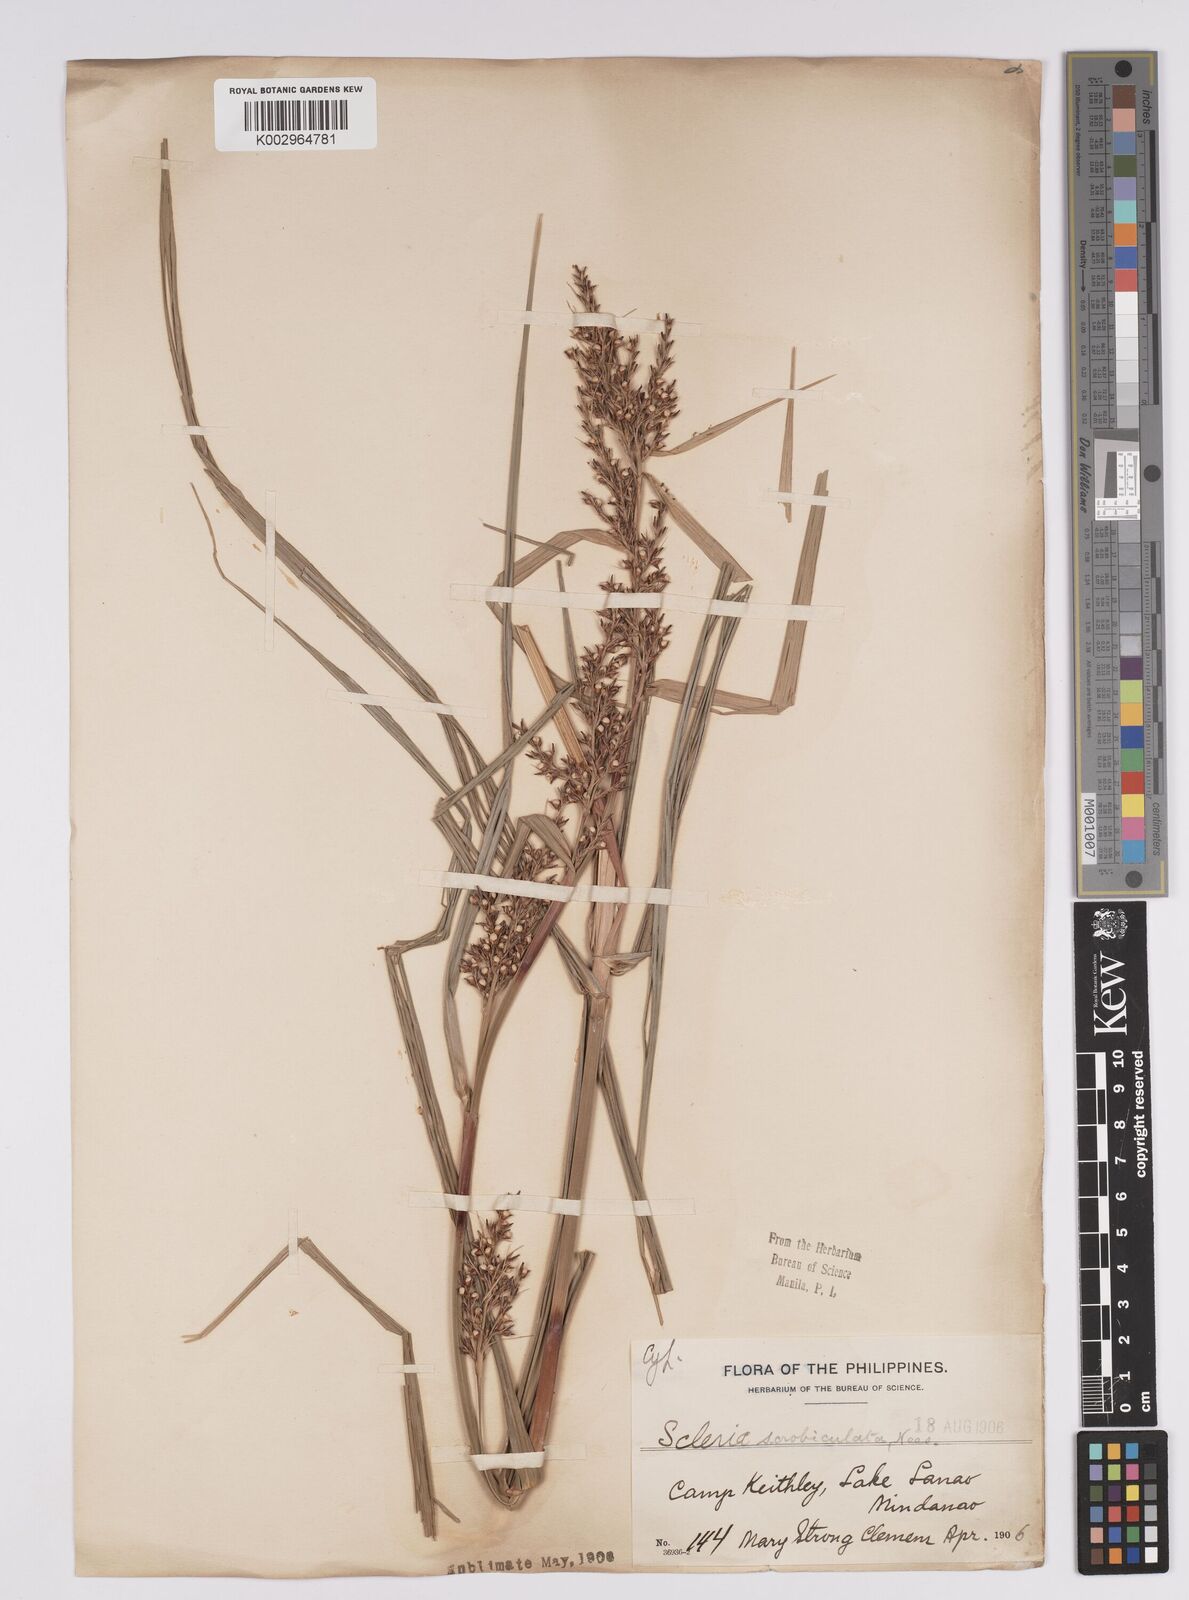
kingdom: Plantae
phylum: Tracheophyta
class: Liliopsida
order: Poales
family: Cyperaceae
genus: Scleria
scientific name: Scleria scrobiculata
